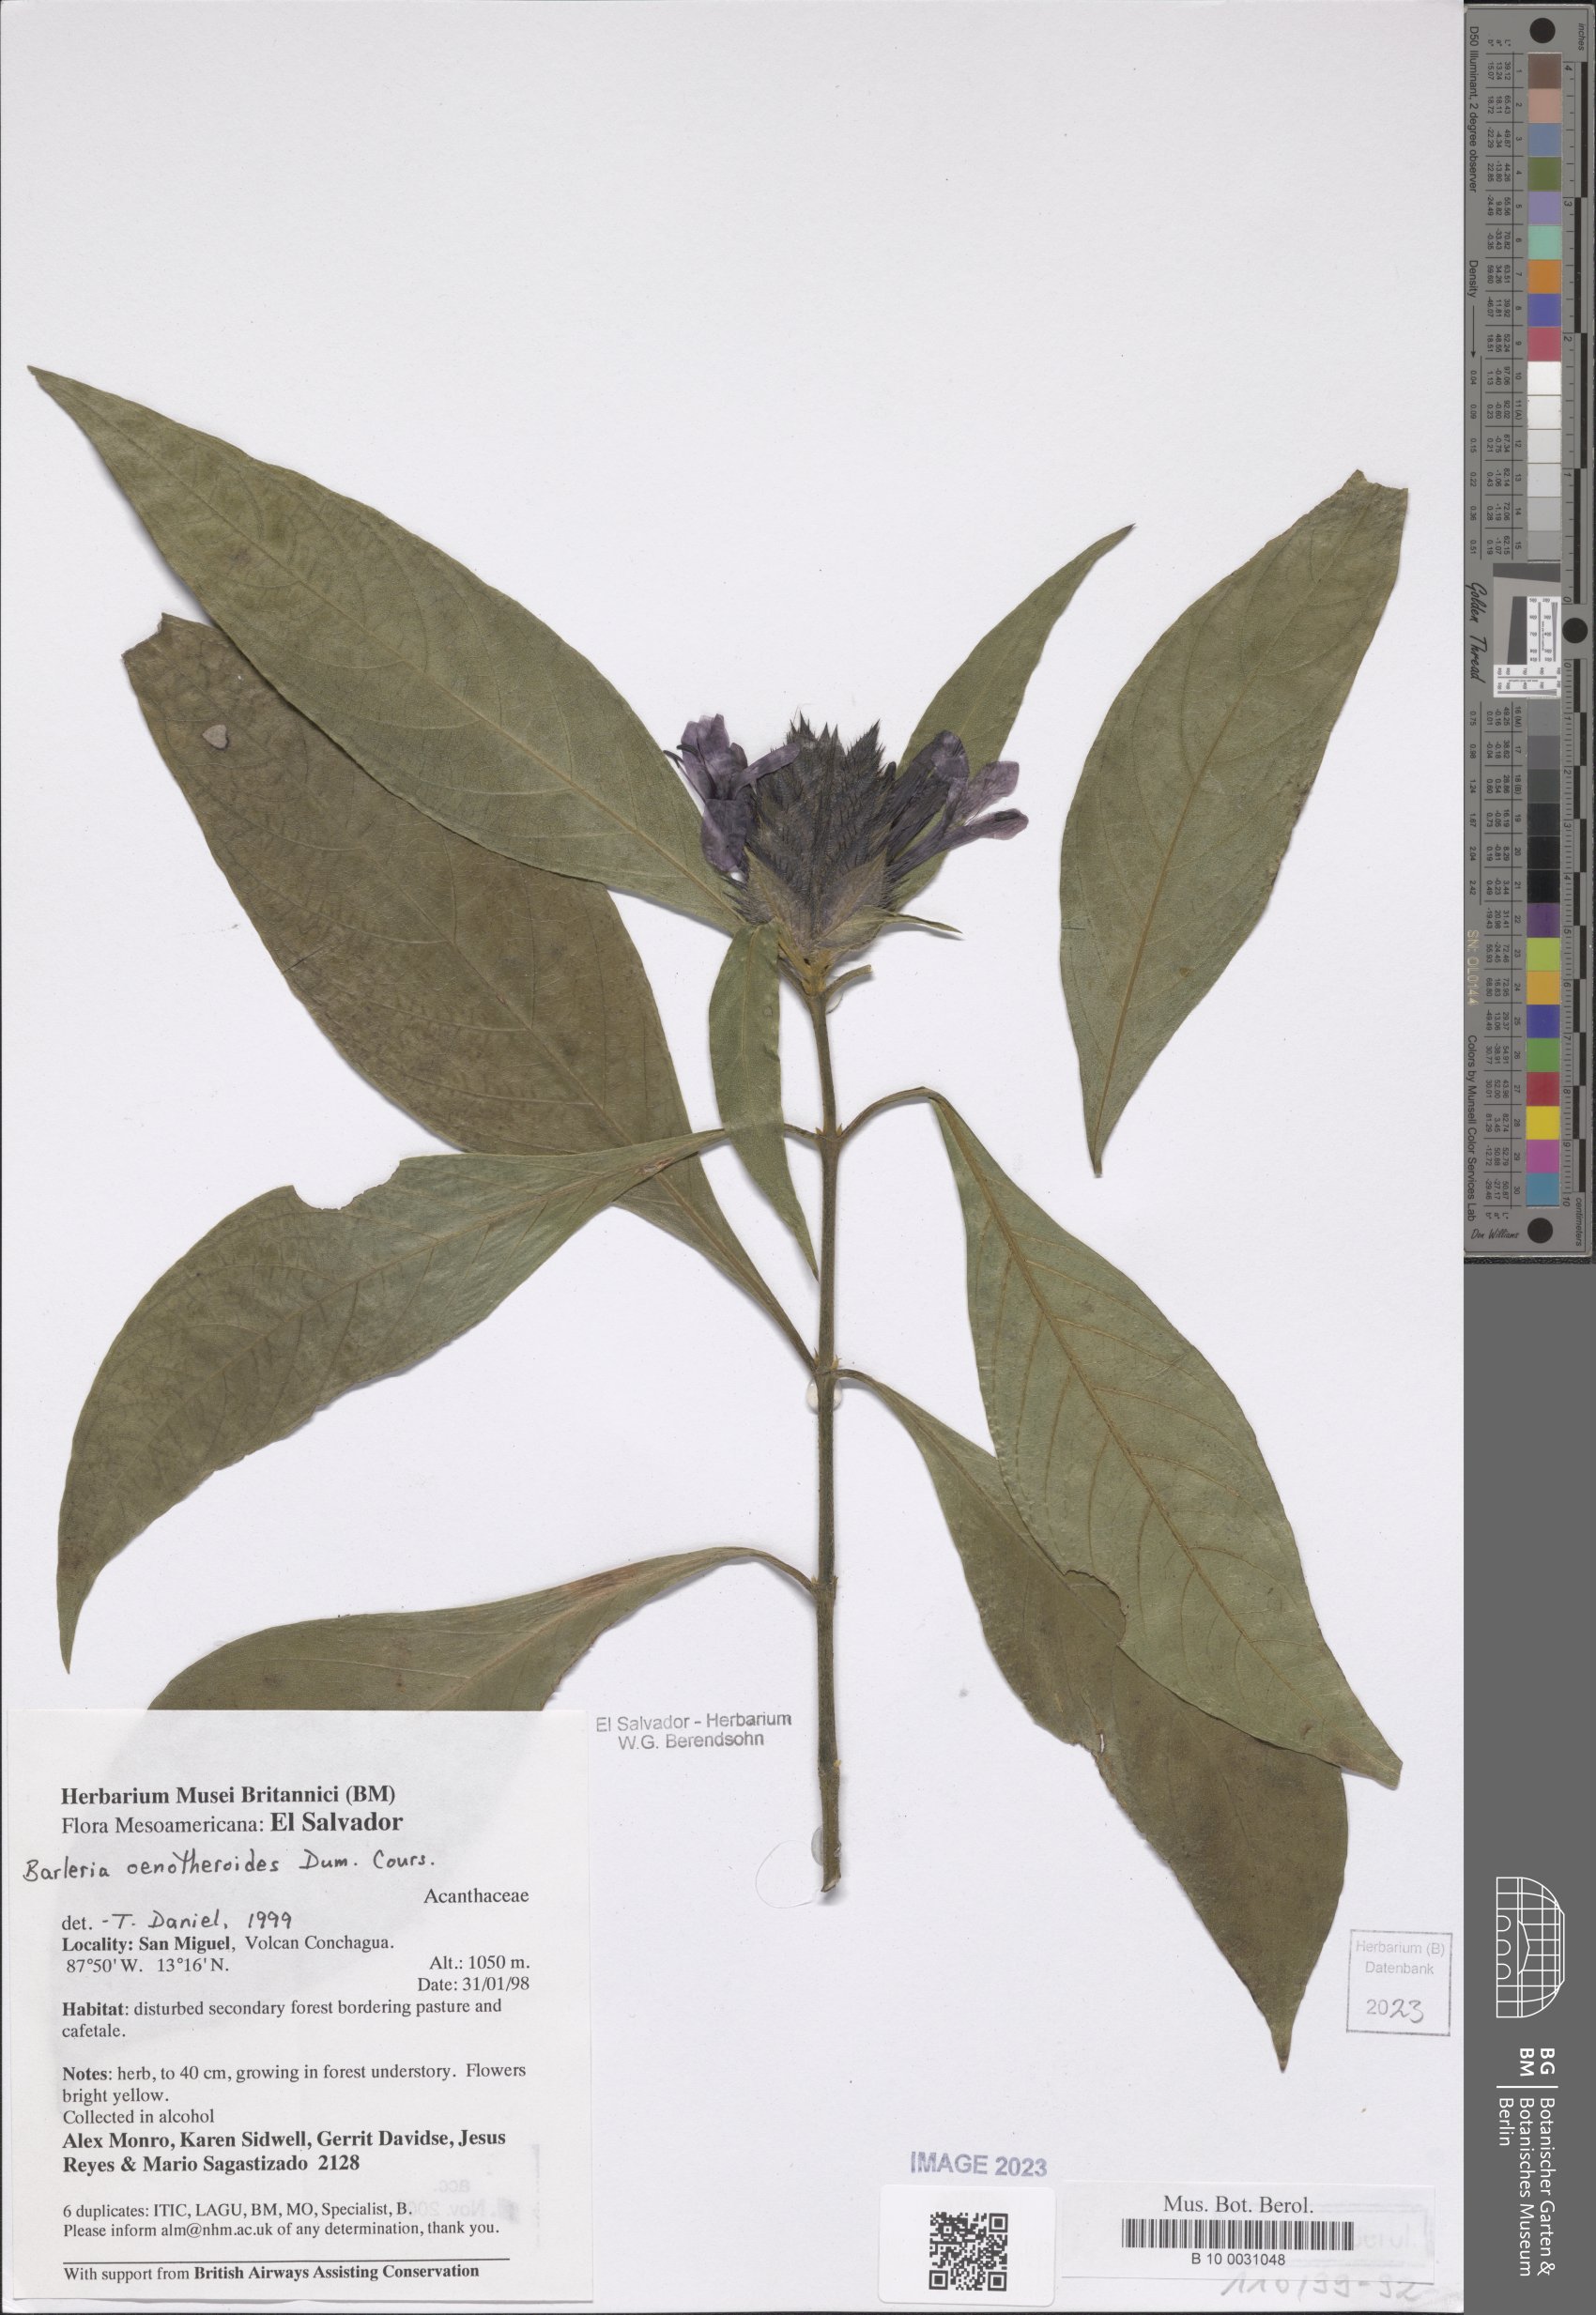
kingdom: Plantae
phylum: Tracheophyta
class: Magnoliopsida
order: Lamiales
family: Acanthaceae
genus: Barleria
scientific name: Barleria oenotheroides
